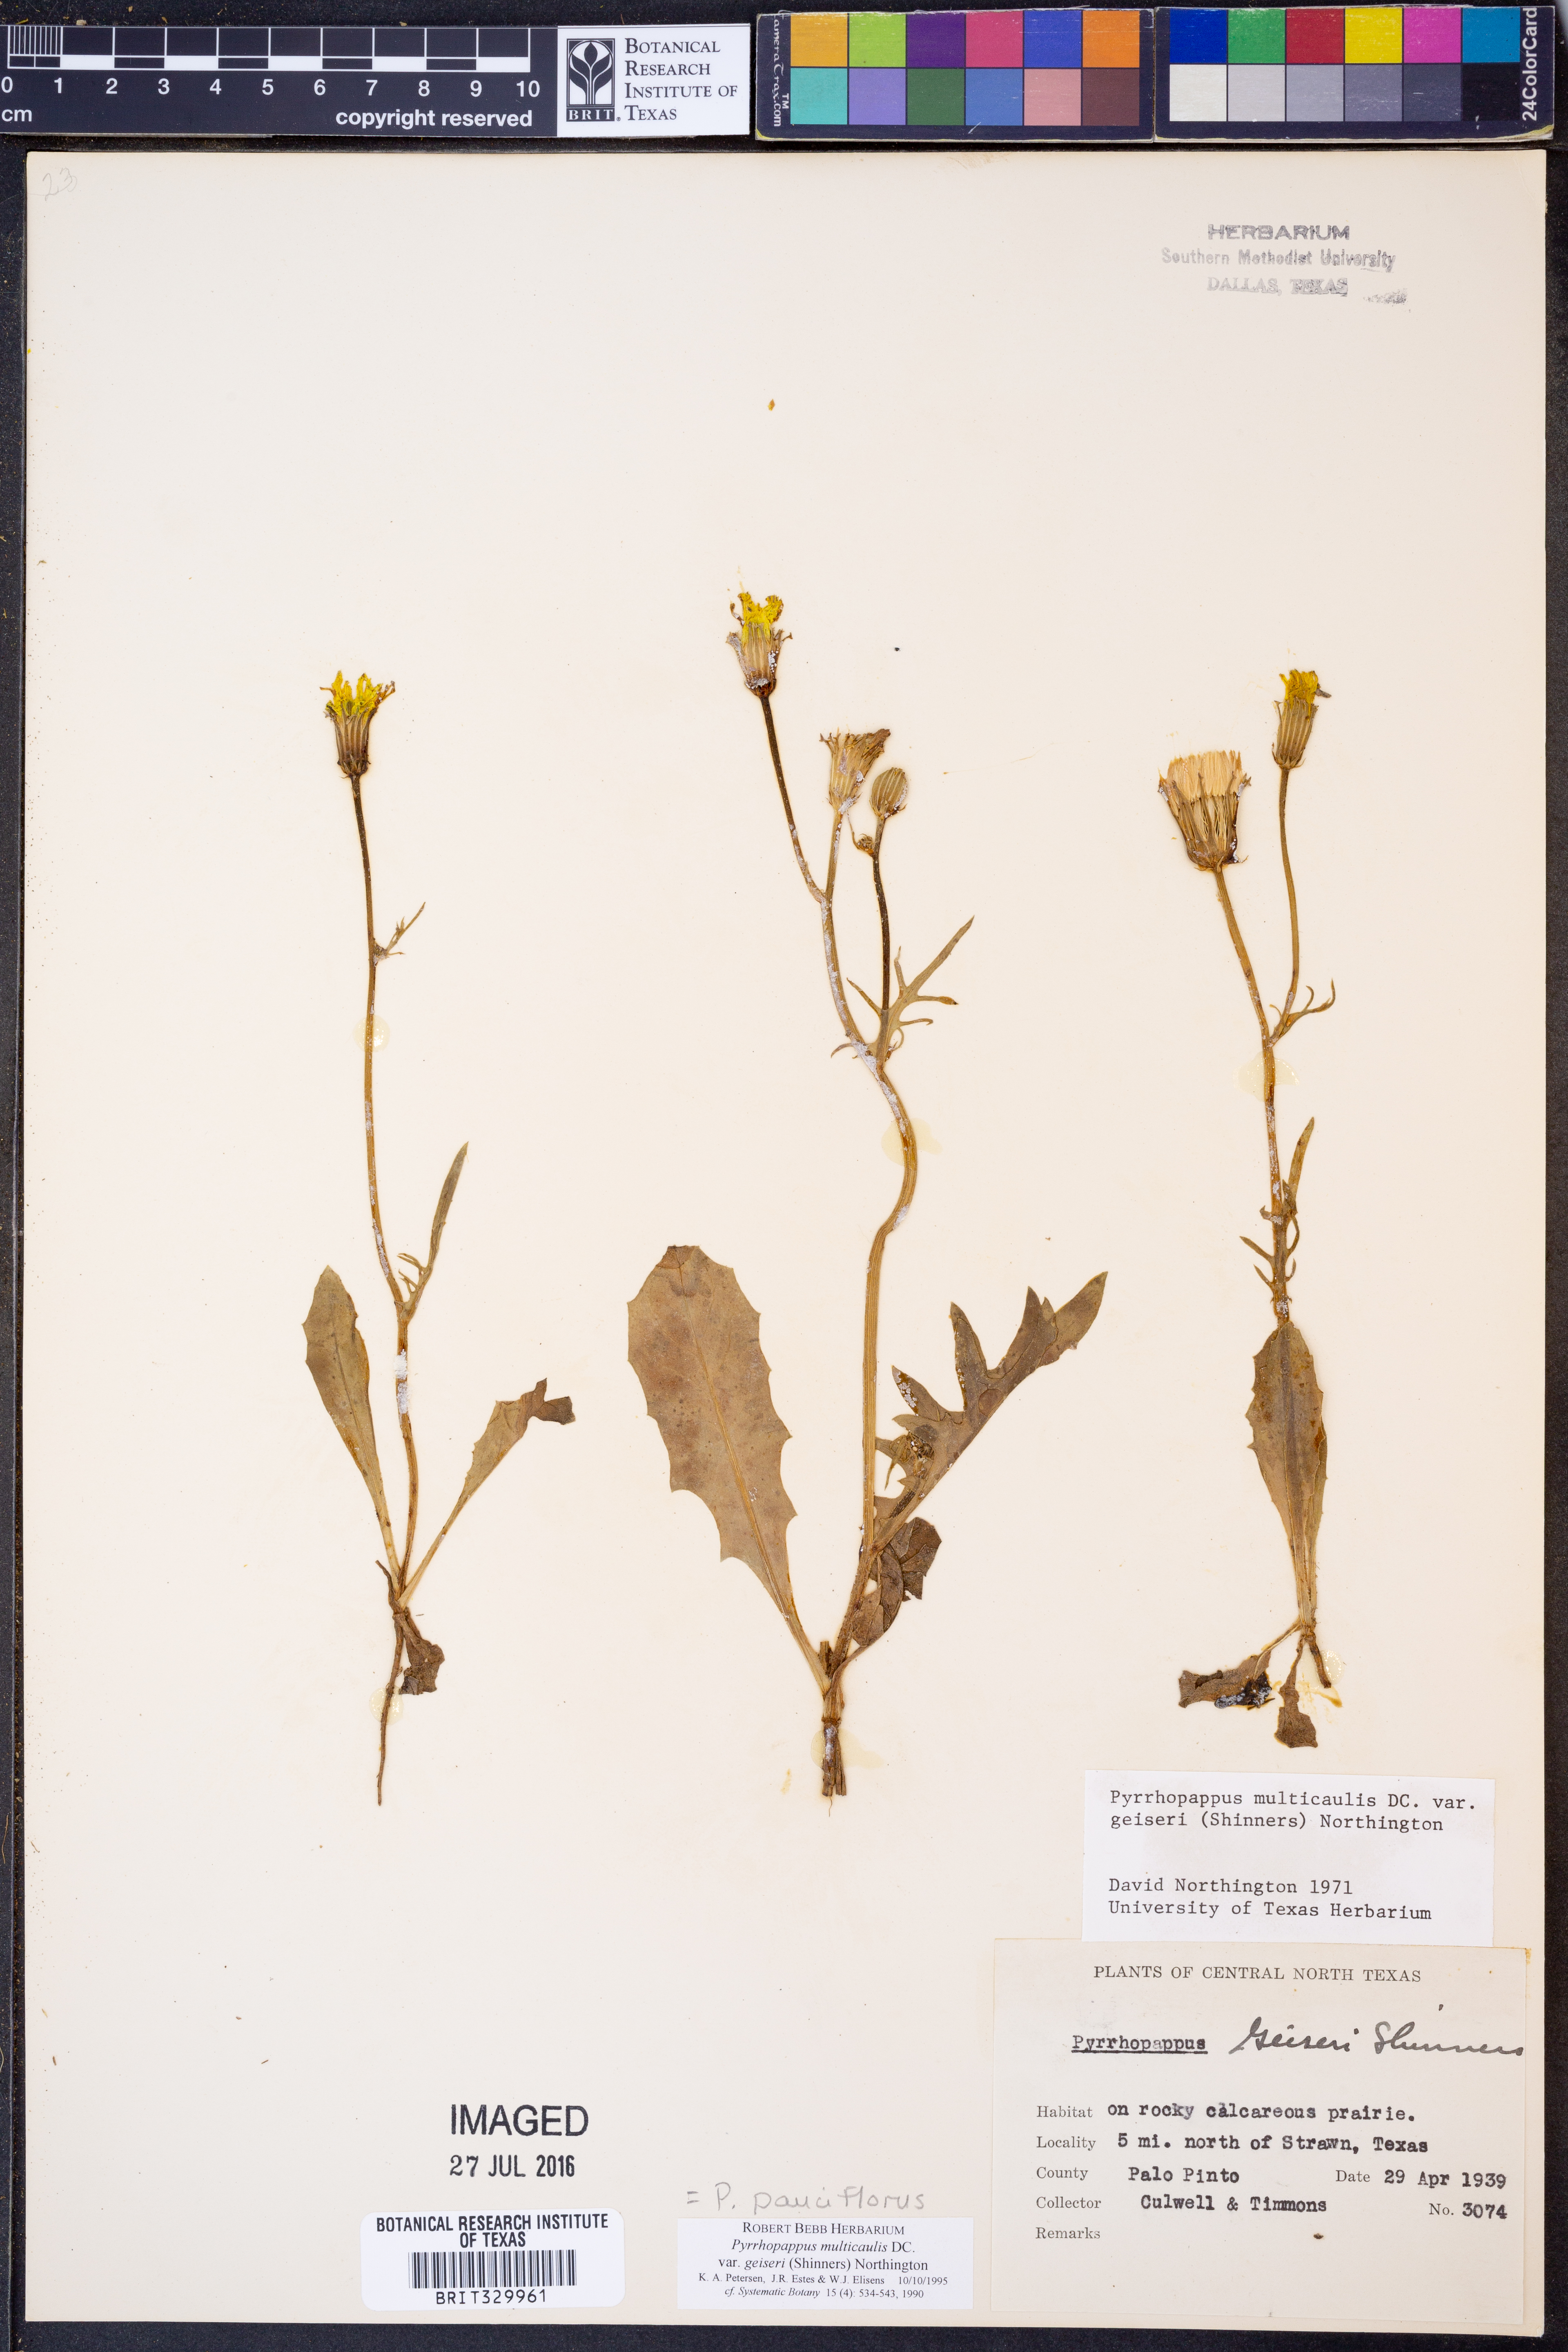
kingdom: Plantae
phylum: Tracheophyta
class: Magnoliopsida
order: Asterales
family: Asteraceae
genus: Pyrrhopappus
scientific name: Pyrrhopappus pauciflorus
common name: Texas false dandelion
